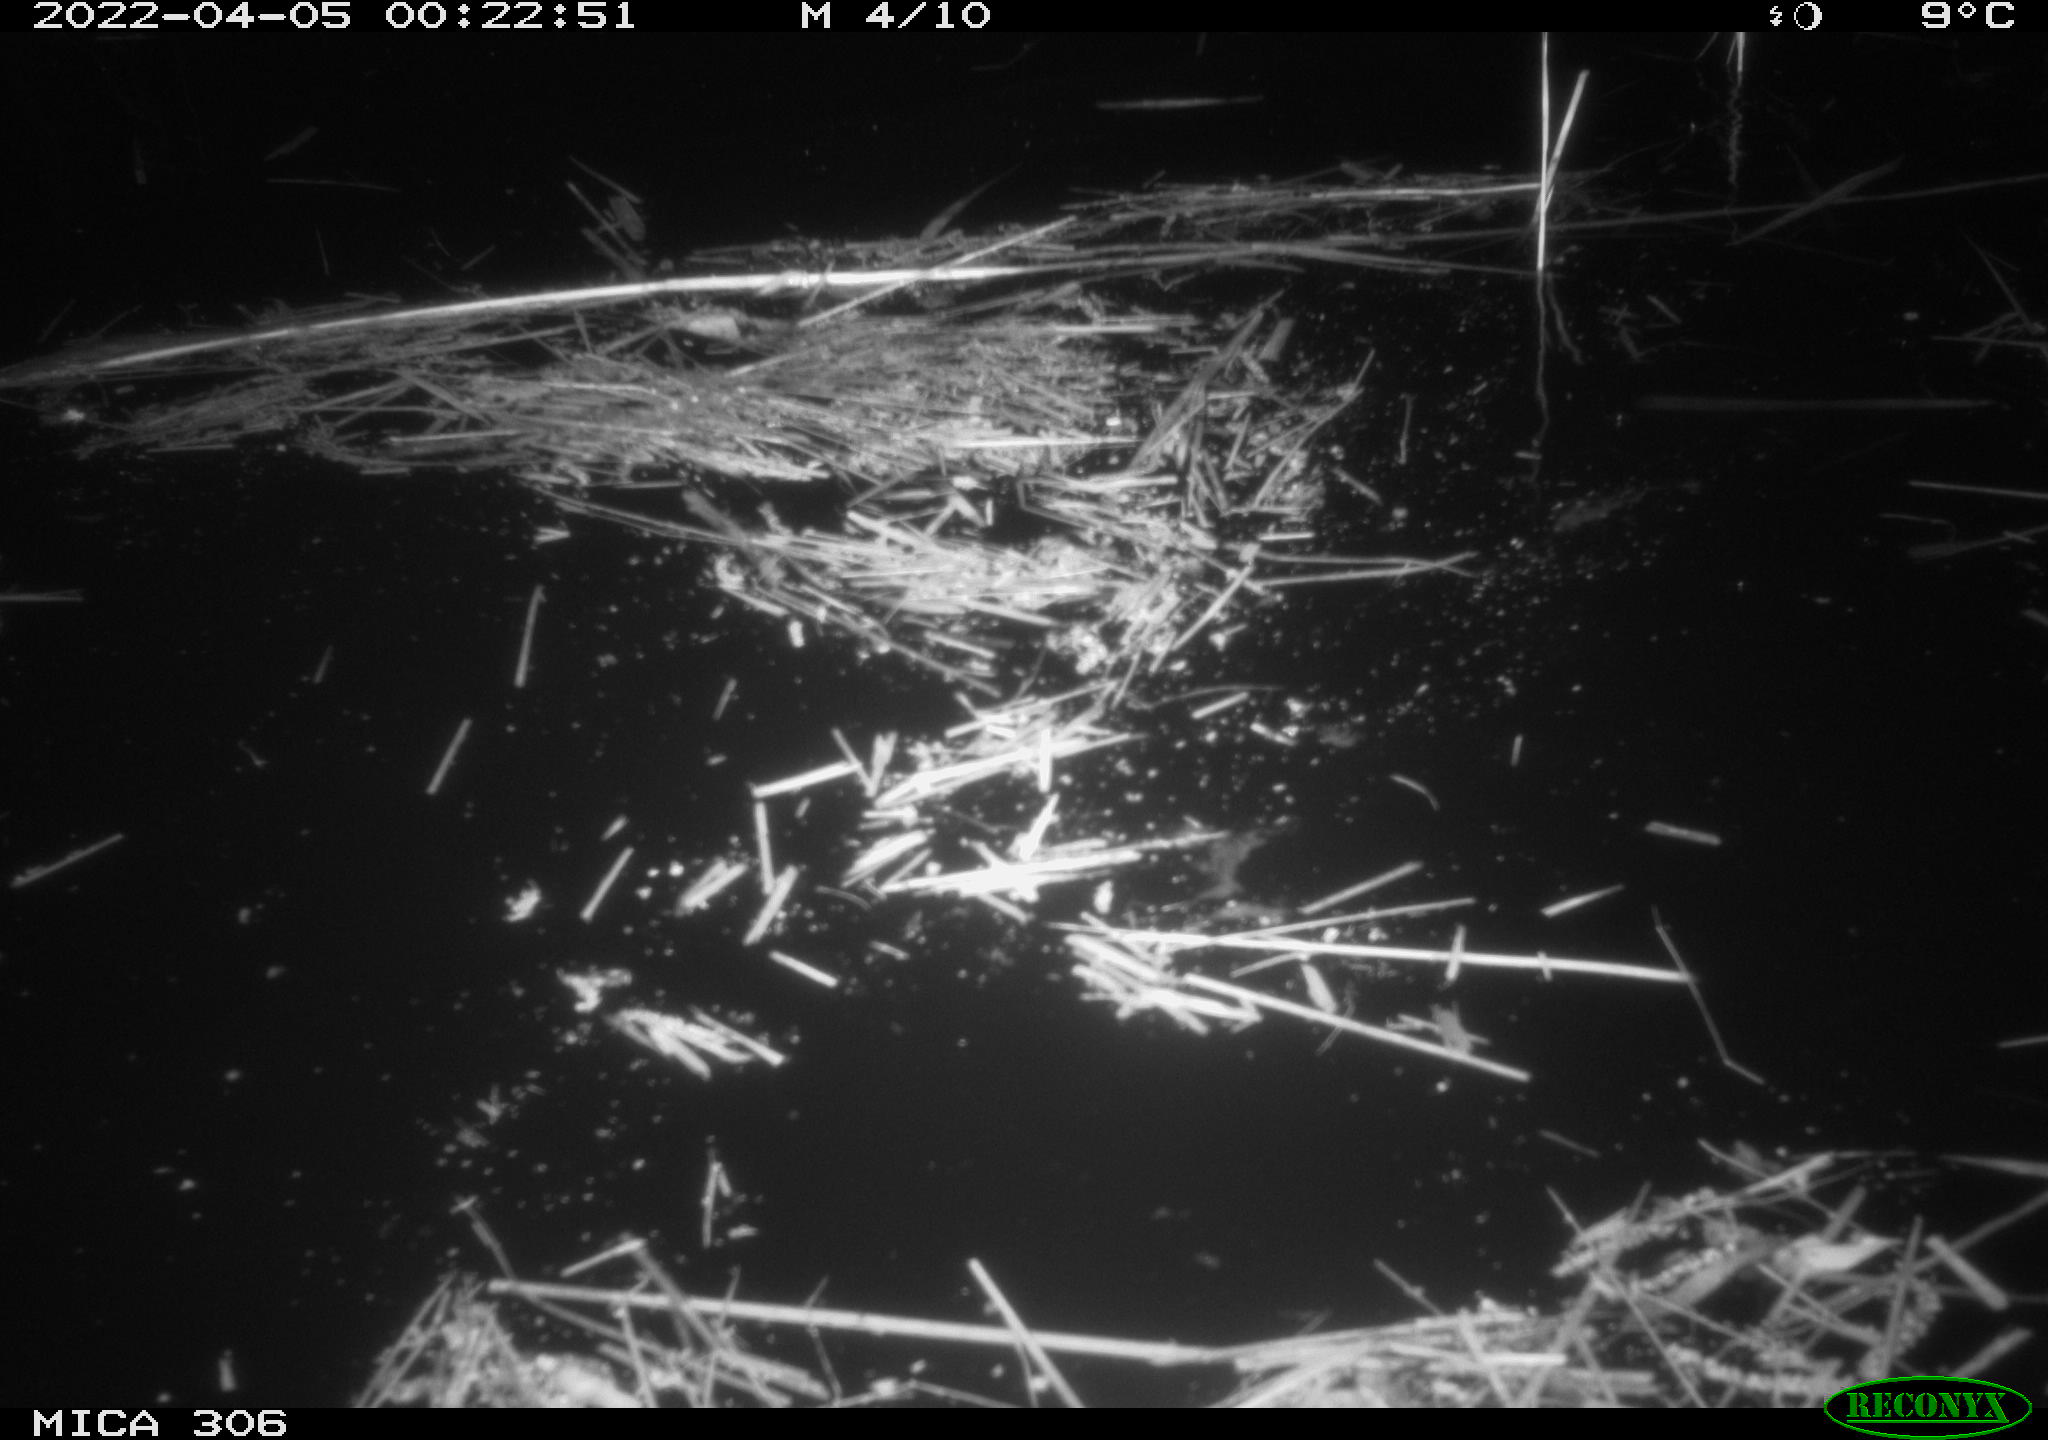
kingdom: Animalia
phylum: Chordata
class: Mammalia
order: Rodentia
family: Cricetidae
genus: Ondatra
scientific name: Ondatra zibethicus
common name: Muskrat
